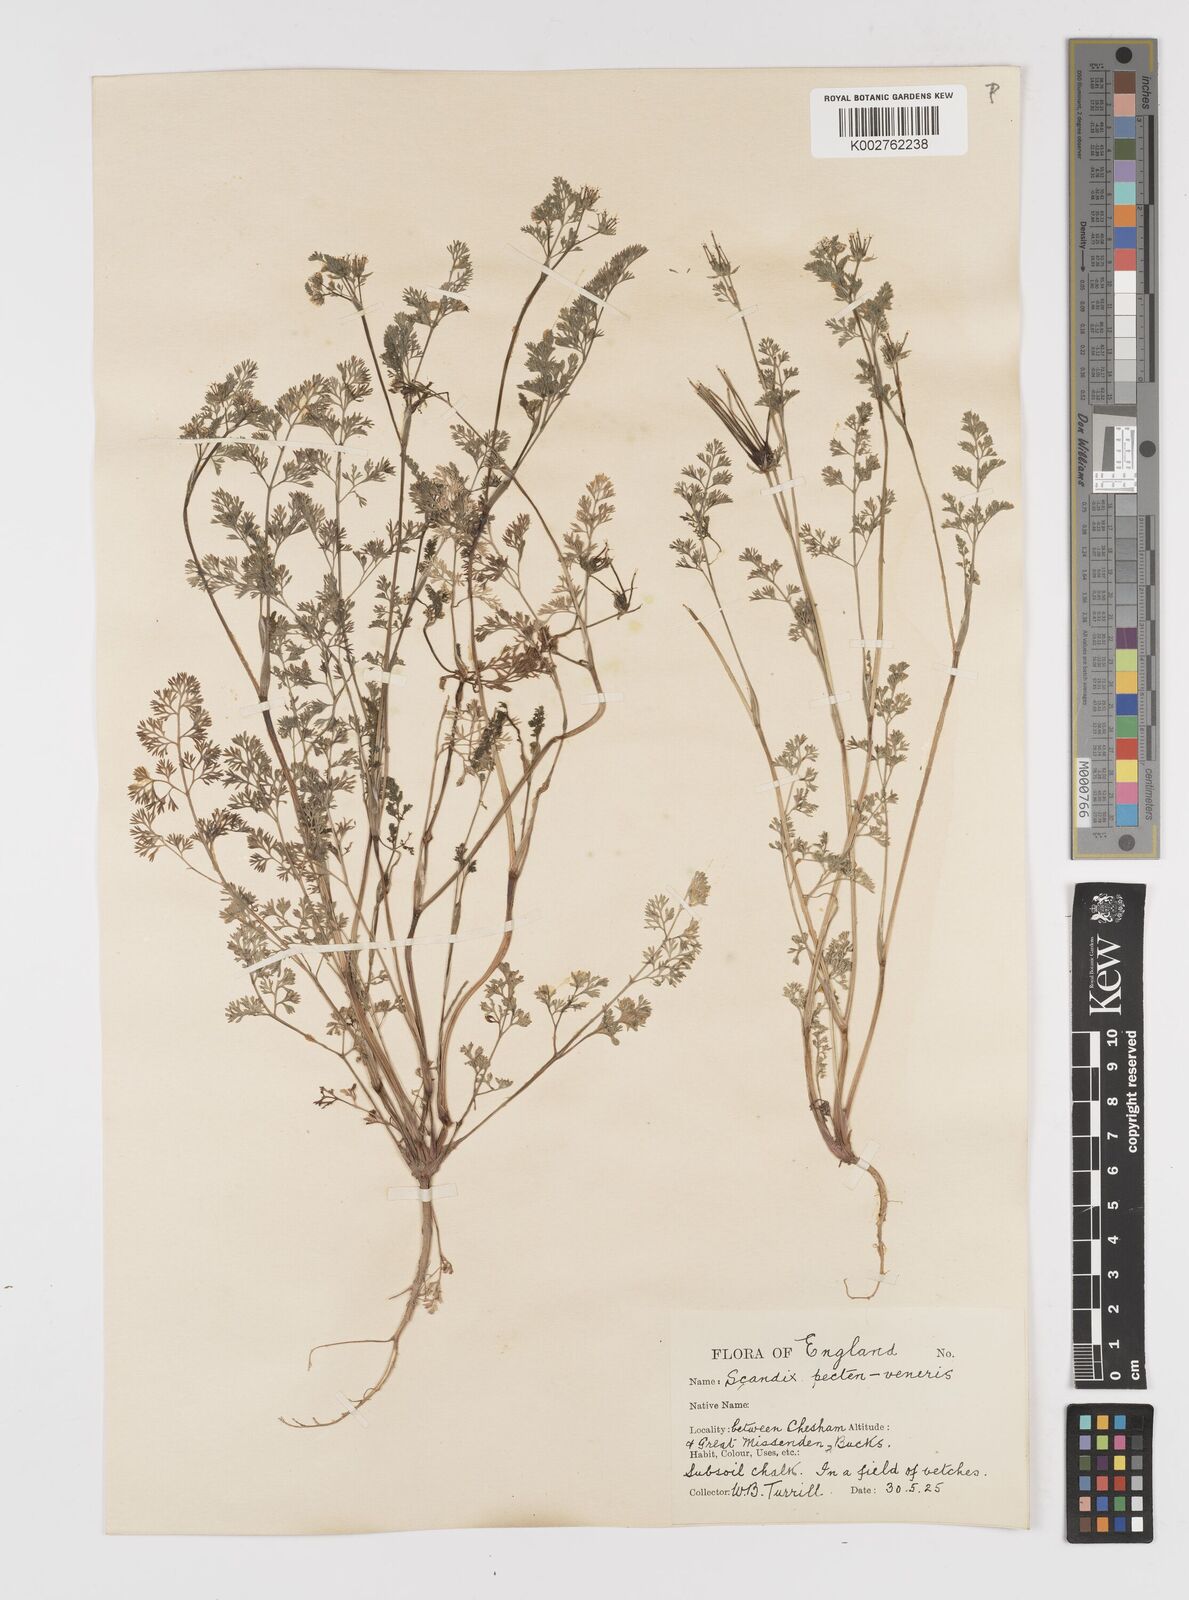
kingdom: Plantae
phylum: Tracheophyta
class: Magnoliopsida
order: Apiales
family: Apiaceae
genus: Scandix
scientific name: Scandix pecten-veneris
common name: Shepherd's-needle
